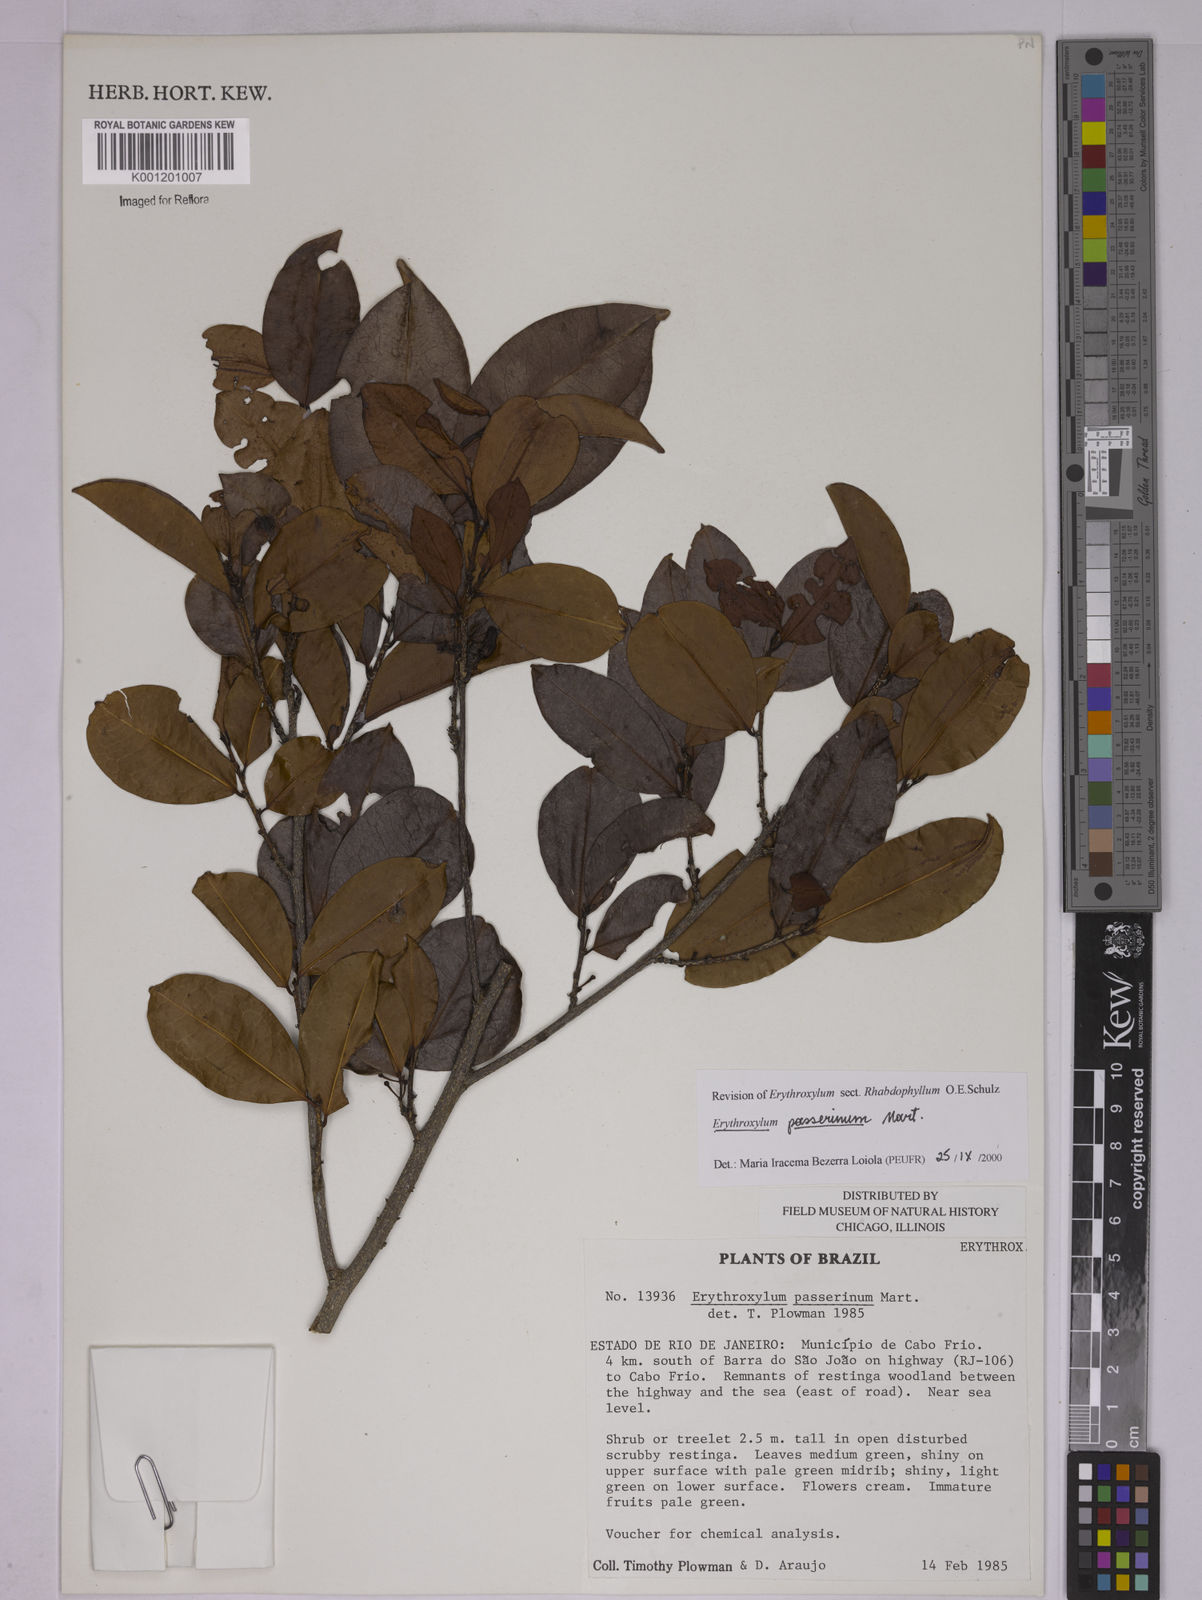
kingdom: Plantae
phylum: Tracheophyta
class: Magnoliopsida
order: Malpighiales
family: Erythroxylaceae
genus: Erythroxylum
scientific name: Erythroxylum passerinum
